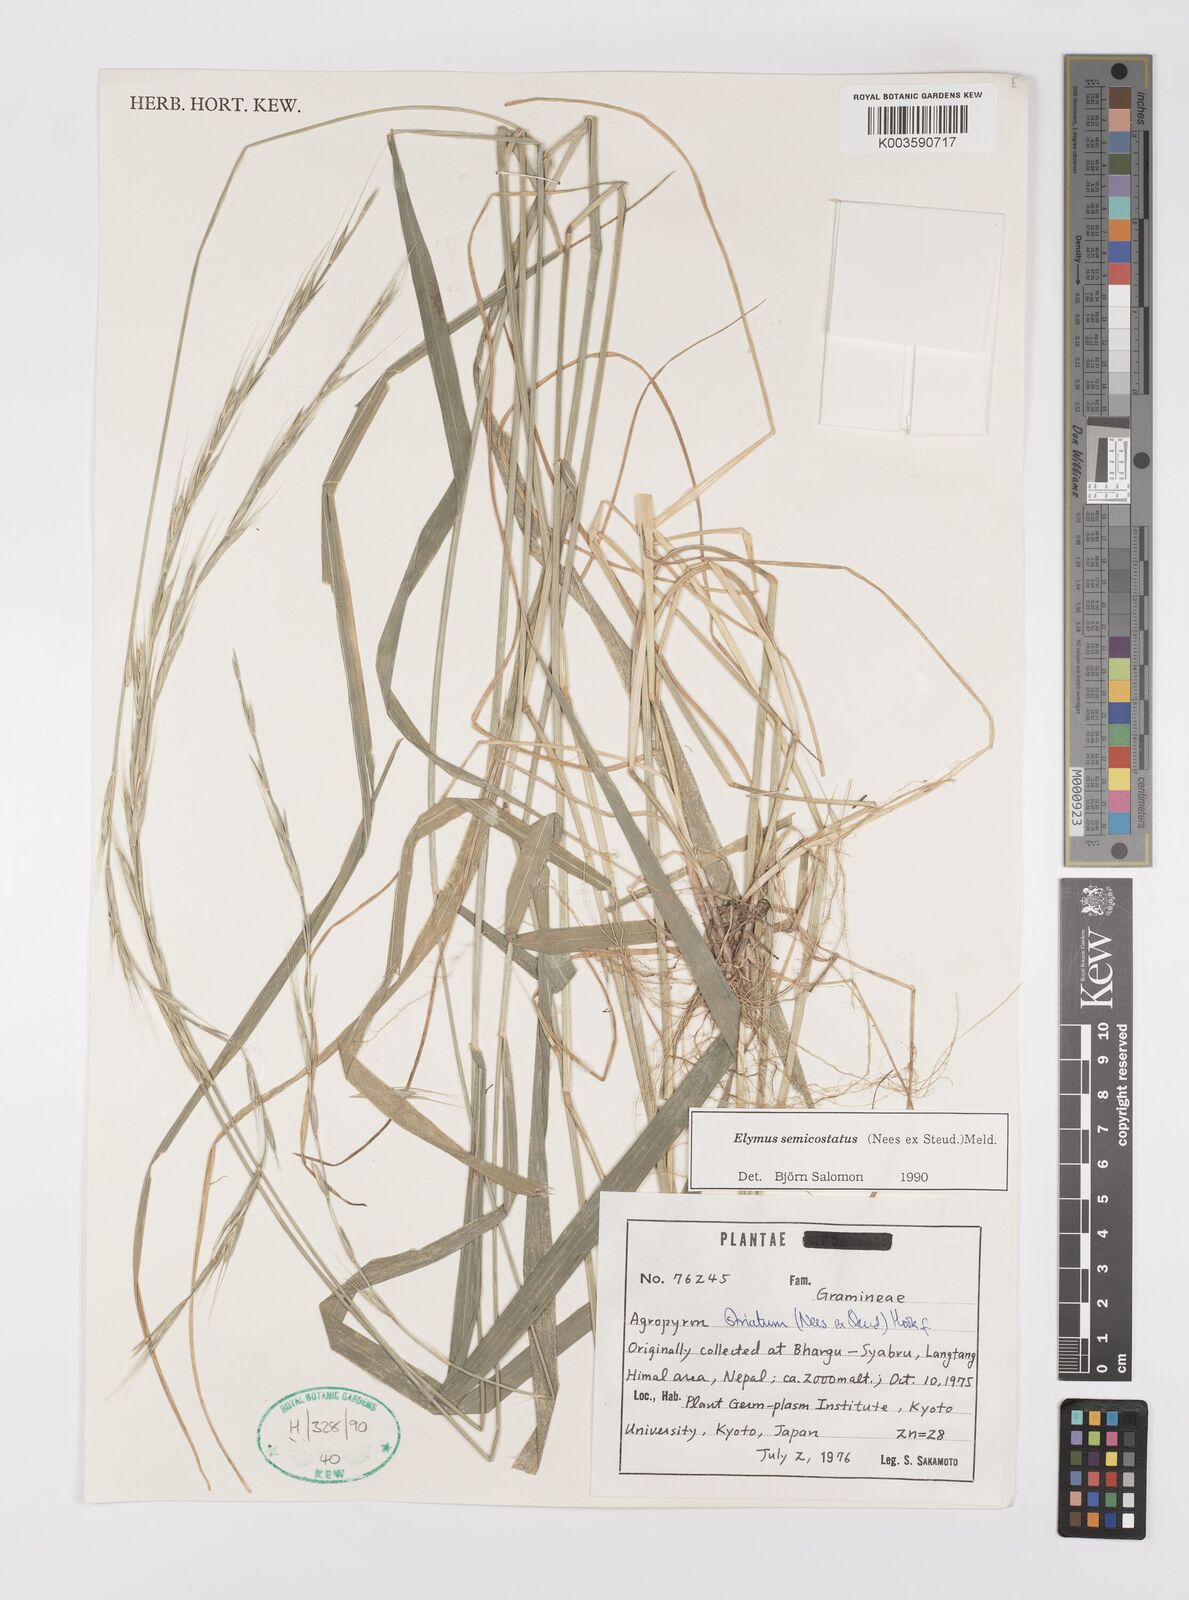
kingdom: Plantae
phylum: Tracheophyta
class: Liliopsida
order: Poales
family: Poaceae
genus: Elymus
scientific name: Elymus semicostatus
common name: Drooping wildrye
